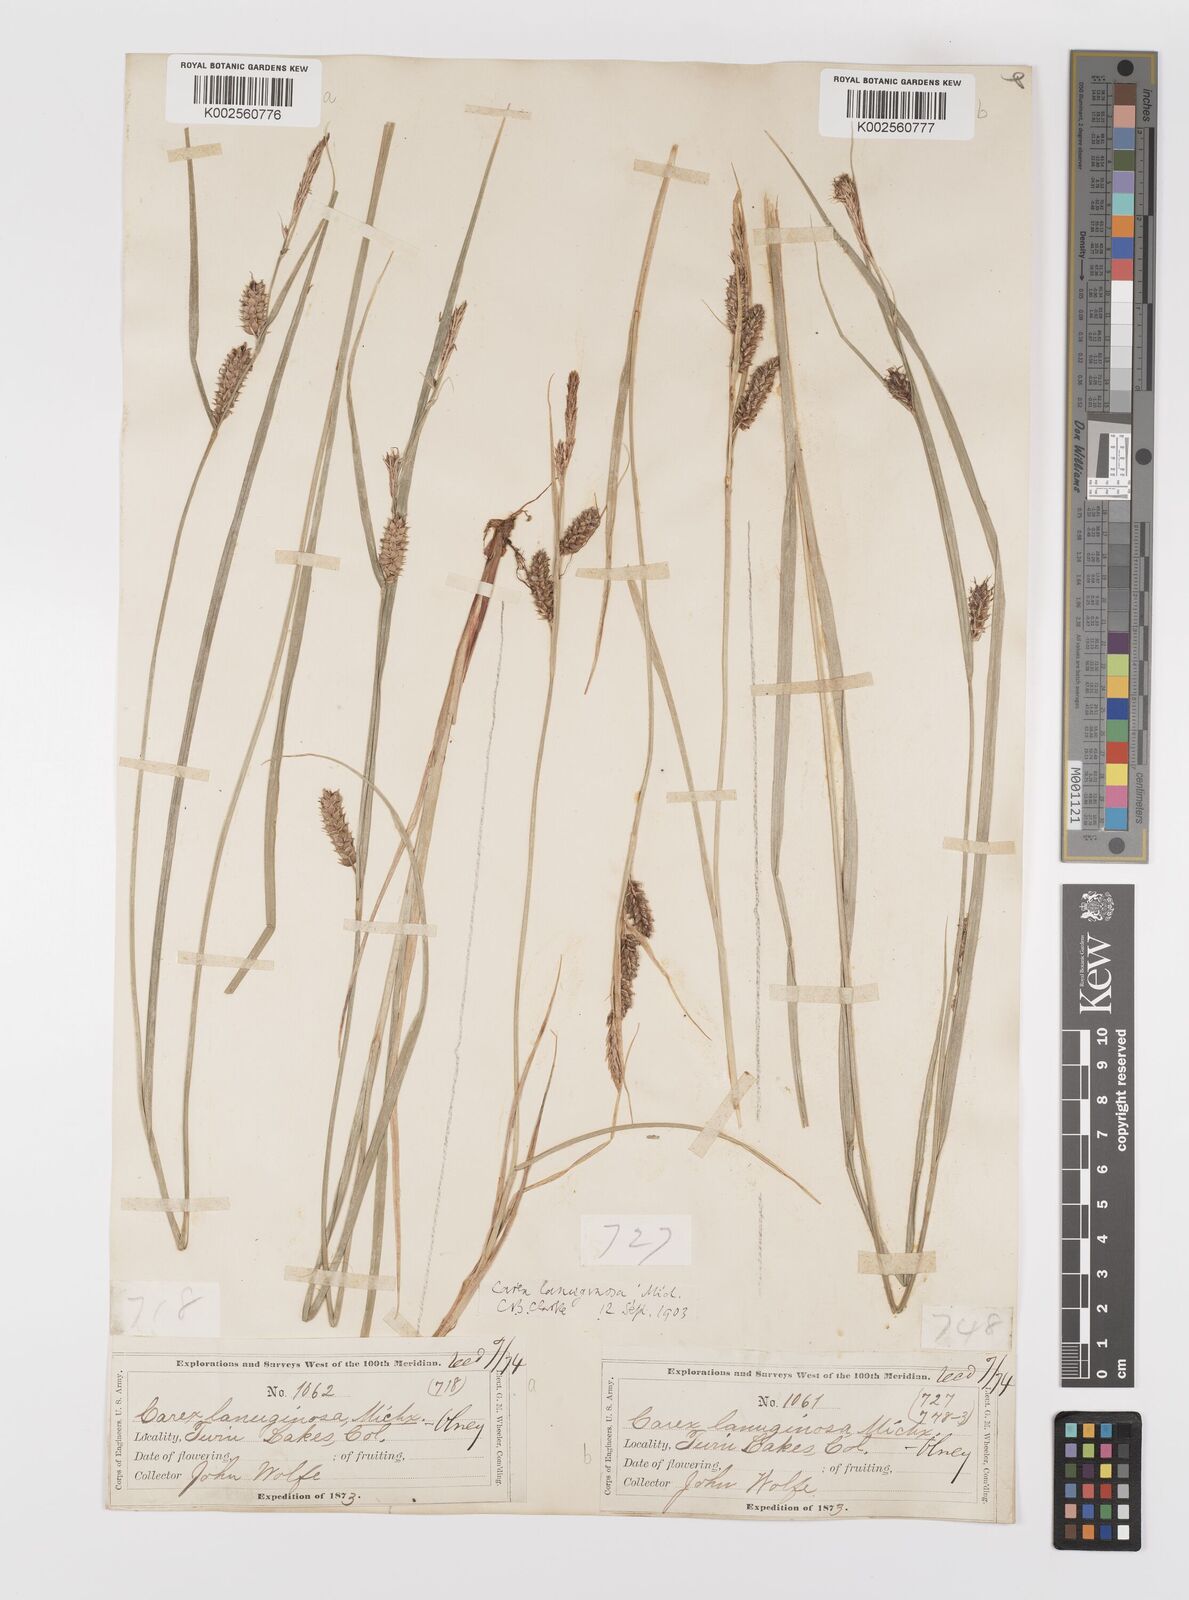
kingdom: Plantae
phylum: Tracheophyta
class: Liliopsida
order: Poales
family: Cyperaceae
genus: Carex
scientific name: Carex lasiocarpa
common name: Slender sedge
